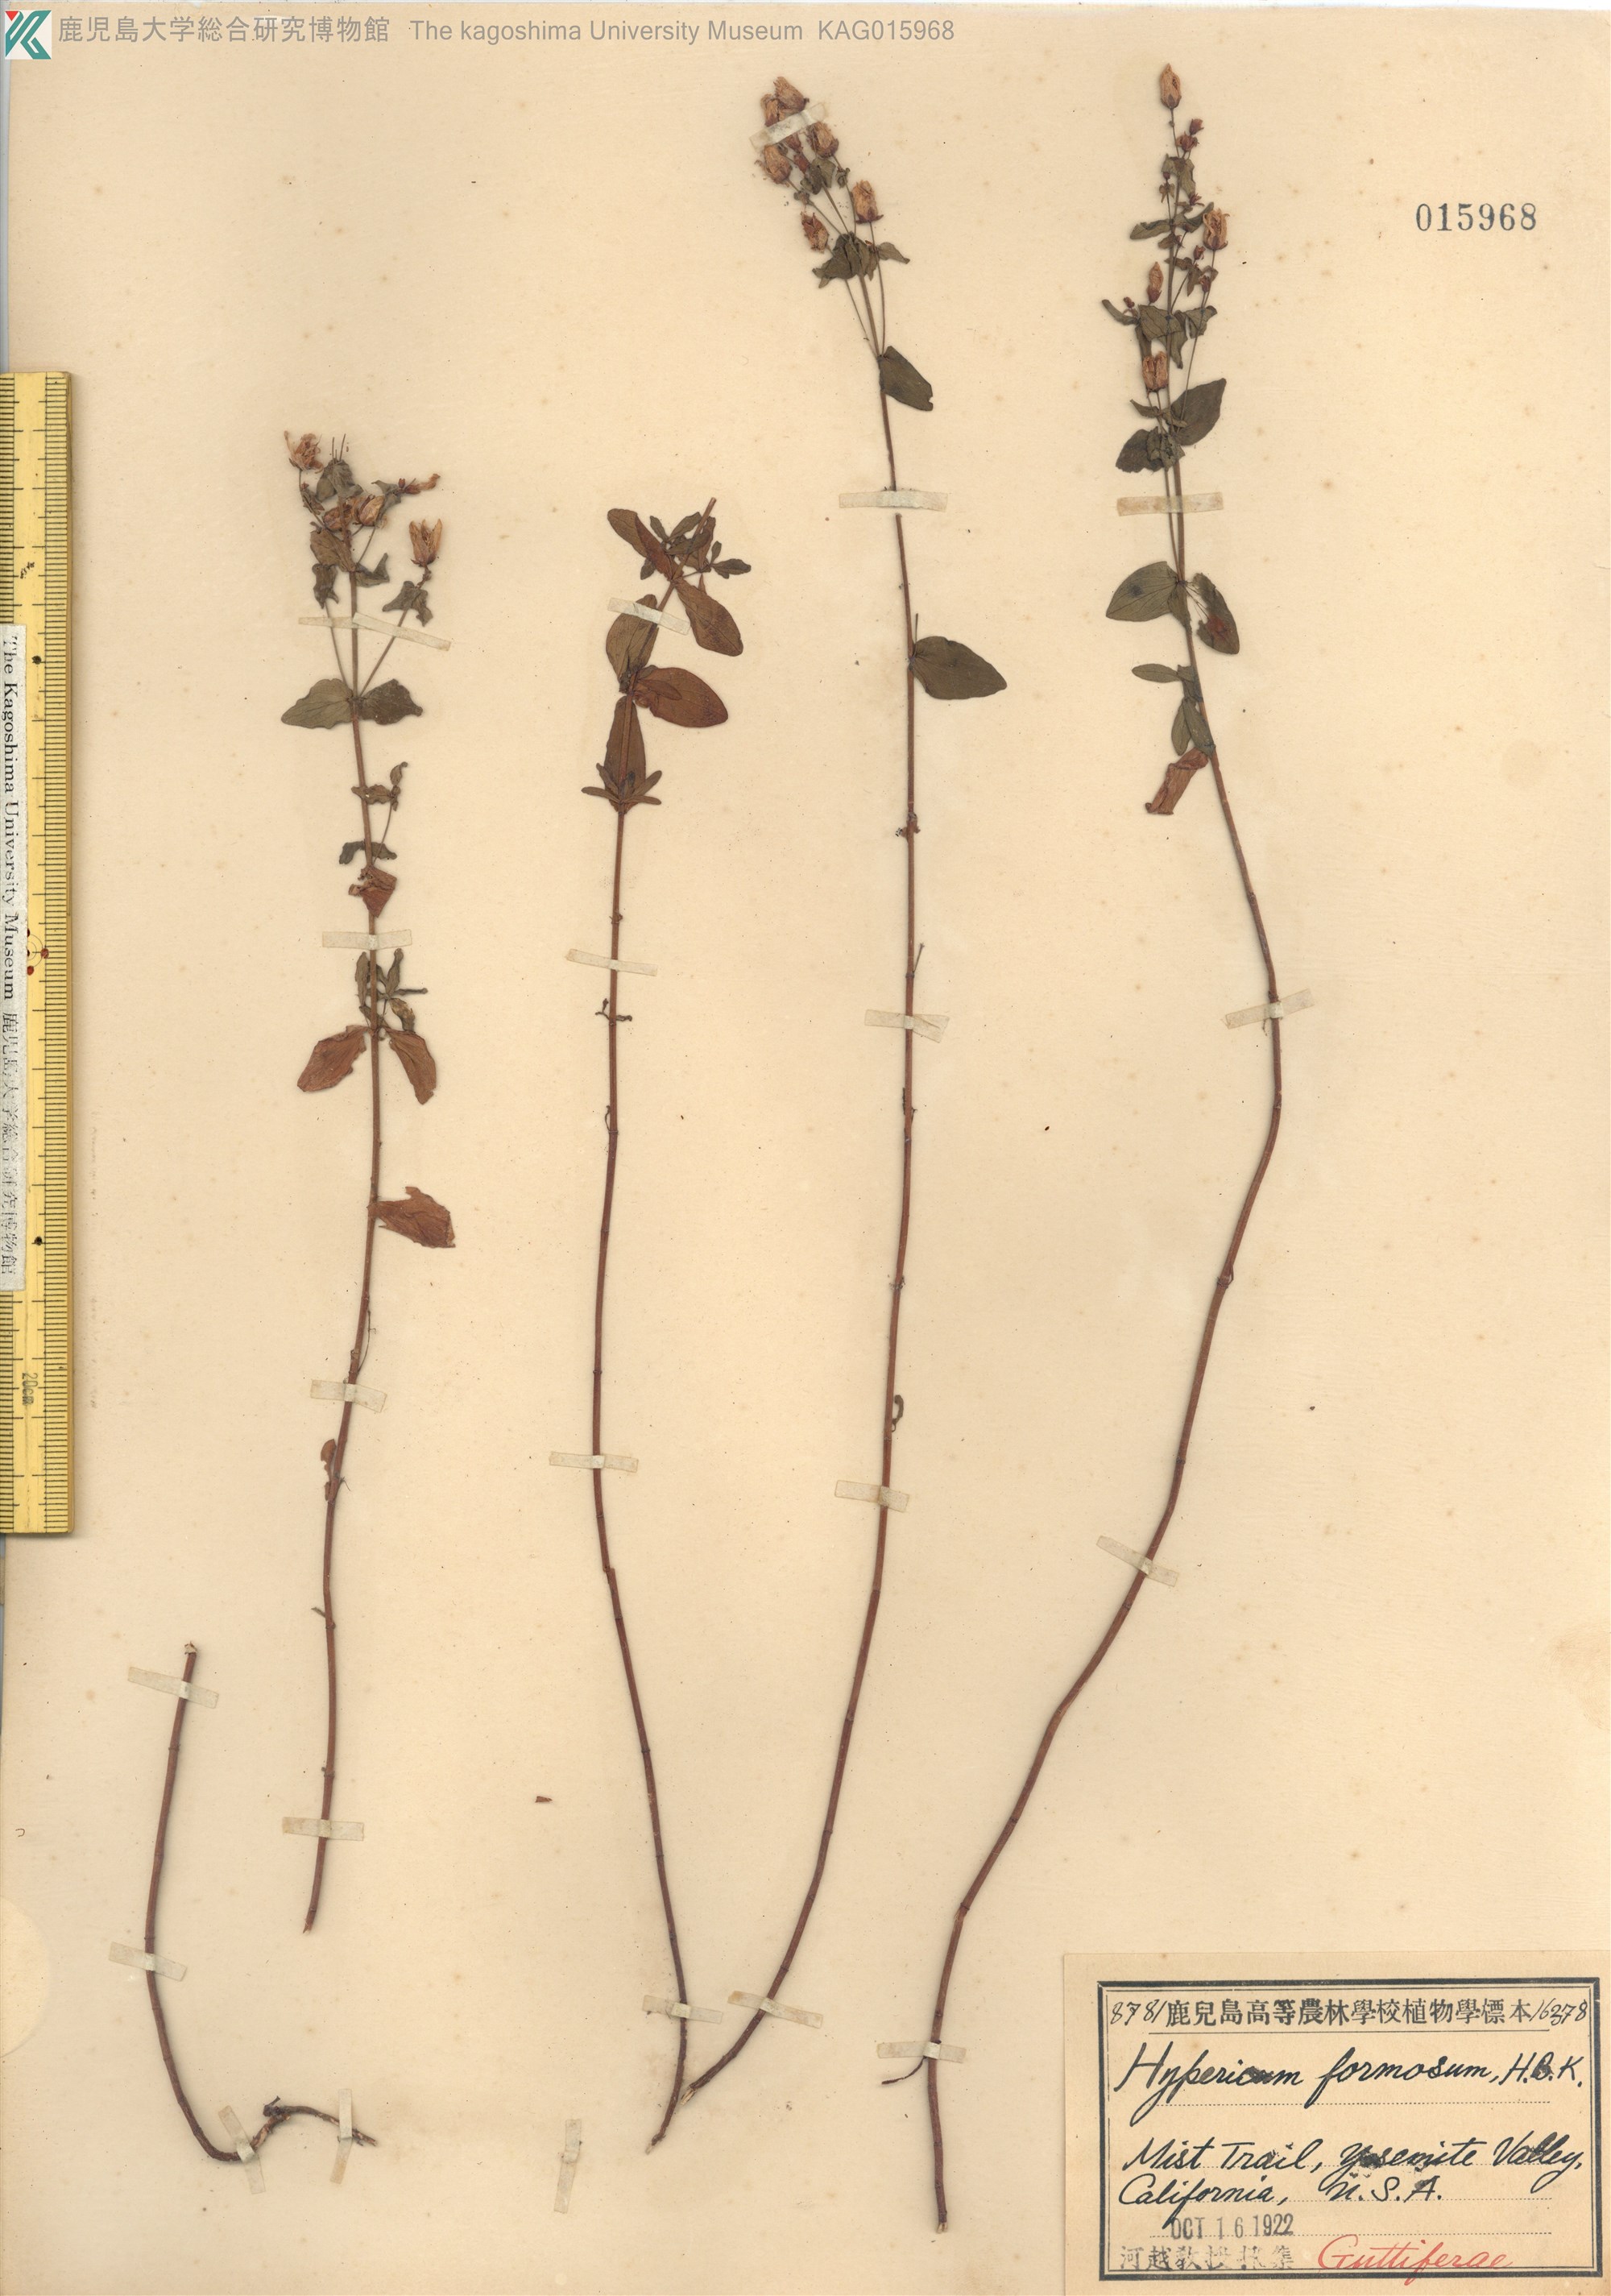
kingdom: Plantae
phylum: Tracheophyta
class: Magnoliopsida
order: Malpighiales
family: Hypericaceae
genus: Hypericum
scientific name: Hypericum formosum
